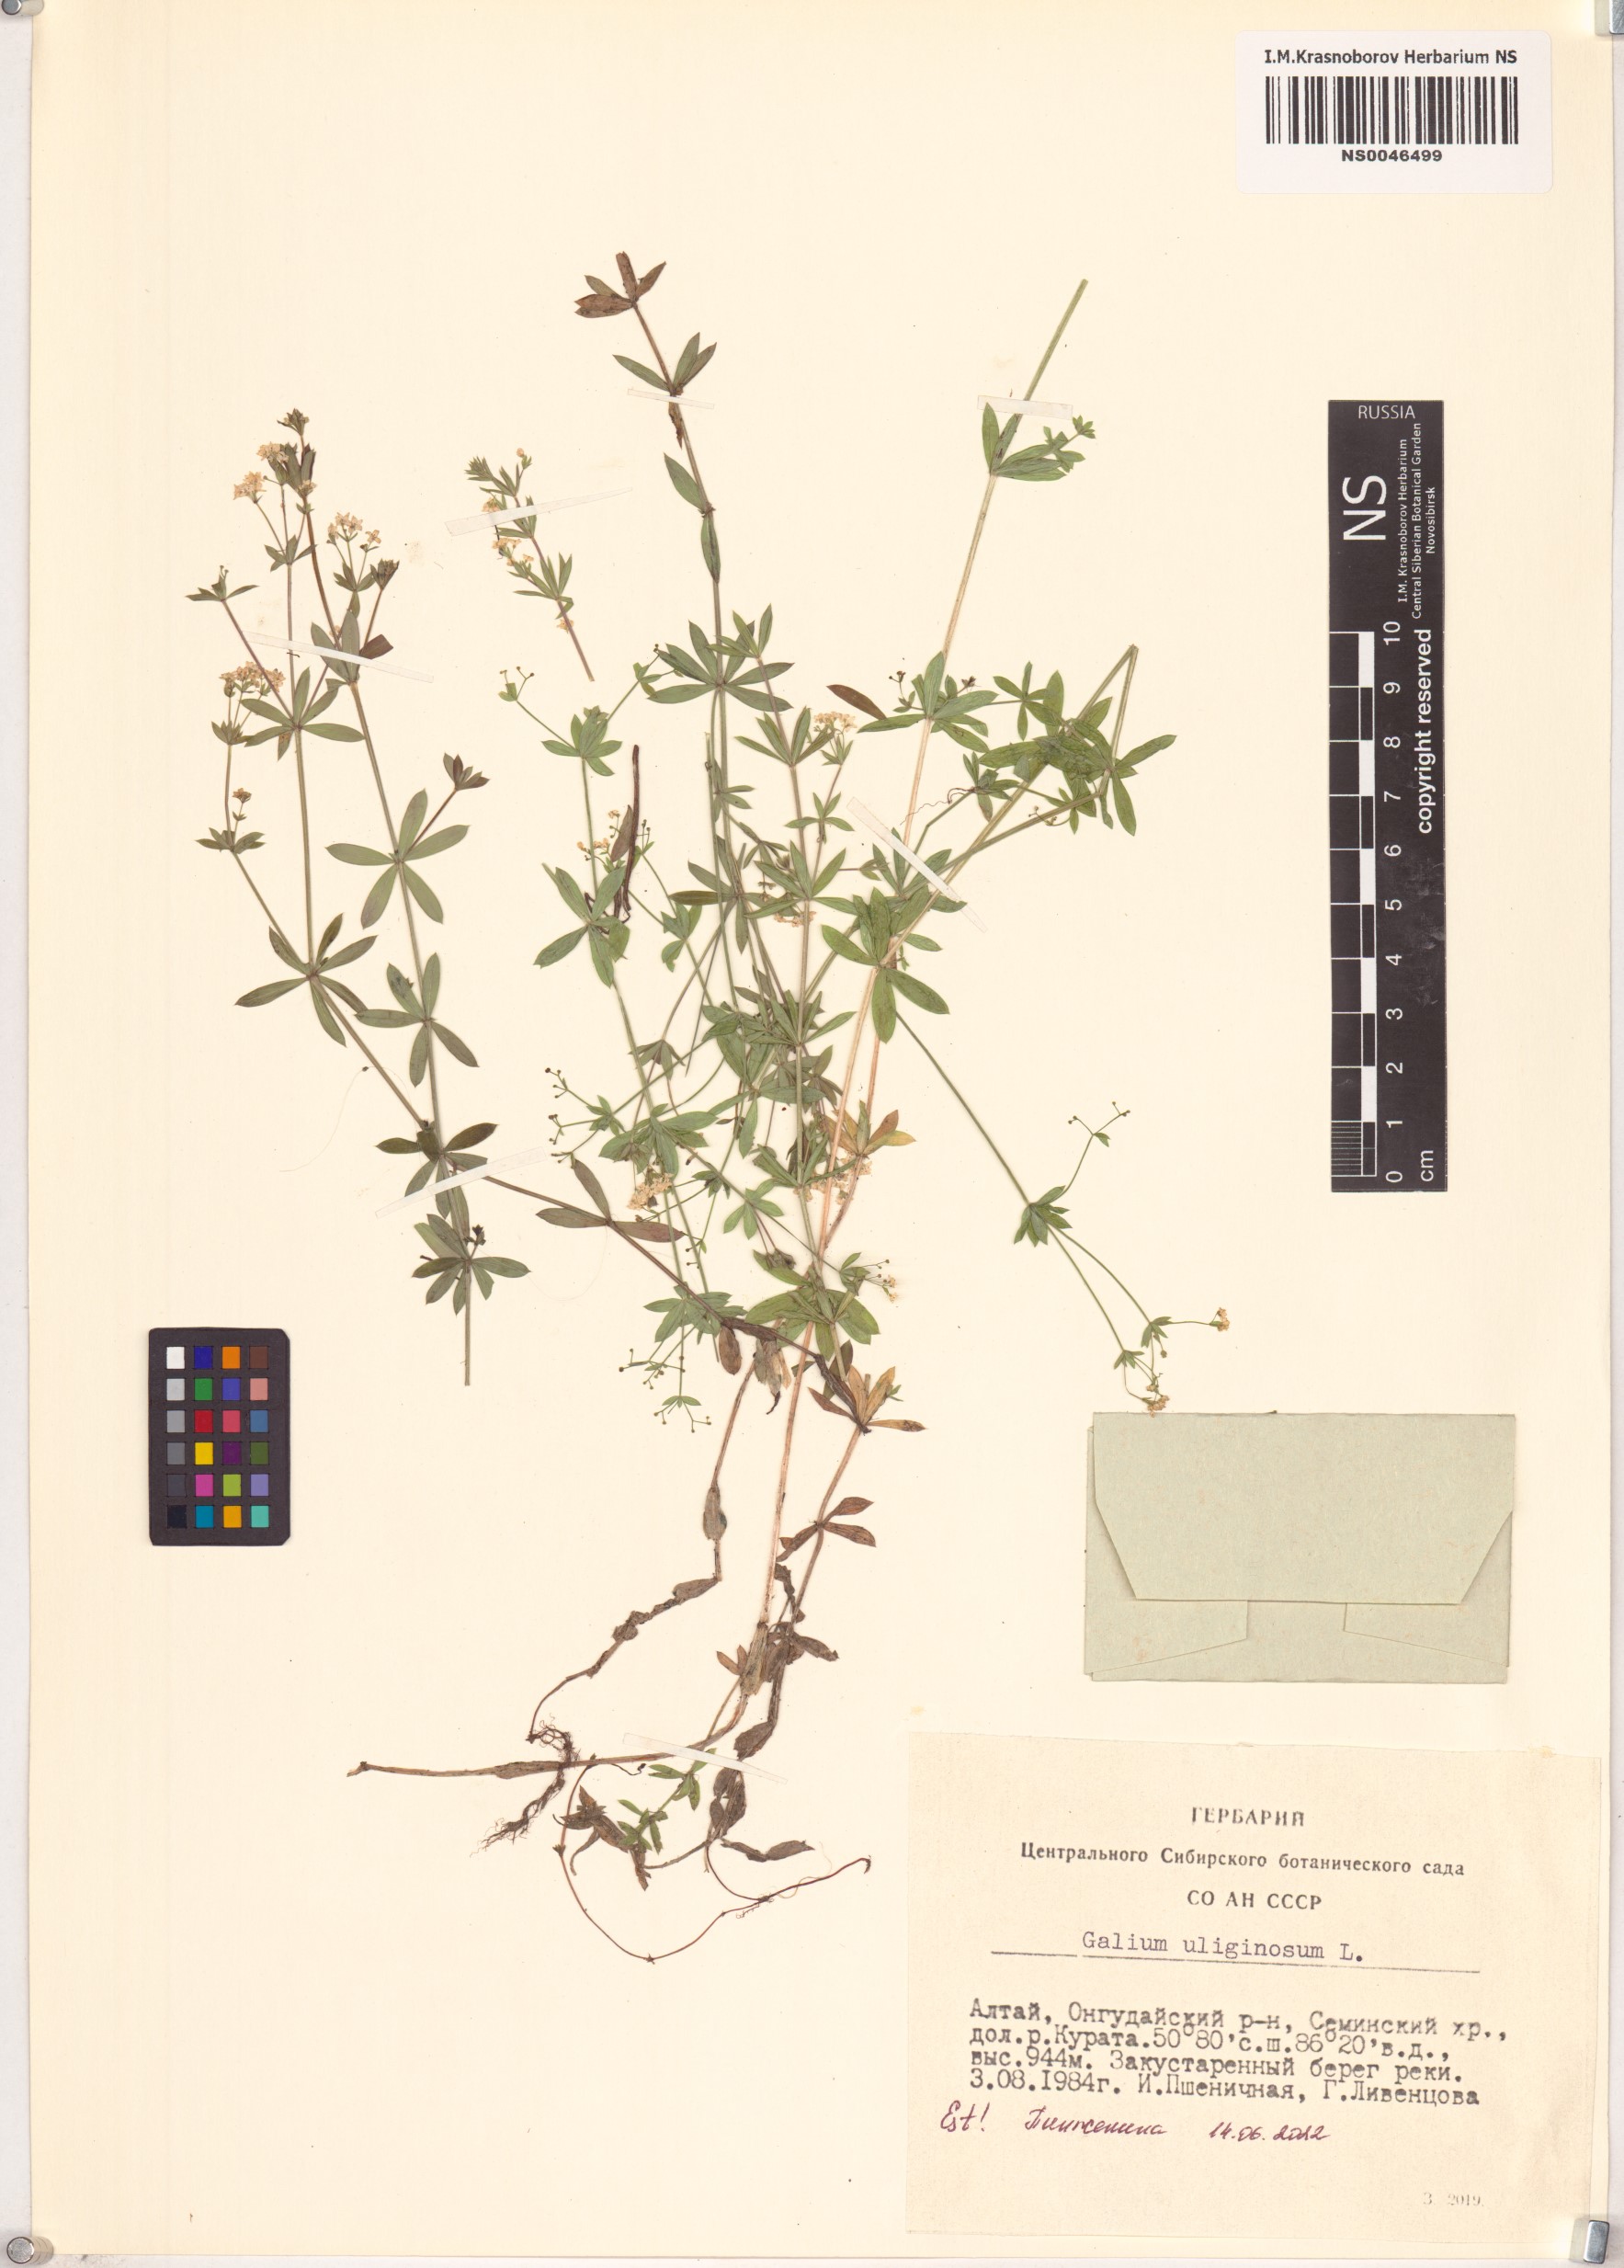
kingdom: Plantae
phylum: Tracheophyta
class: Magnoliopsida
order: Gentianales
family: Rubiaceae
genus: Galium
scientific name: Galium uliginosum
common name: Fen bedstraw
